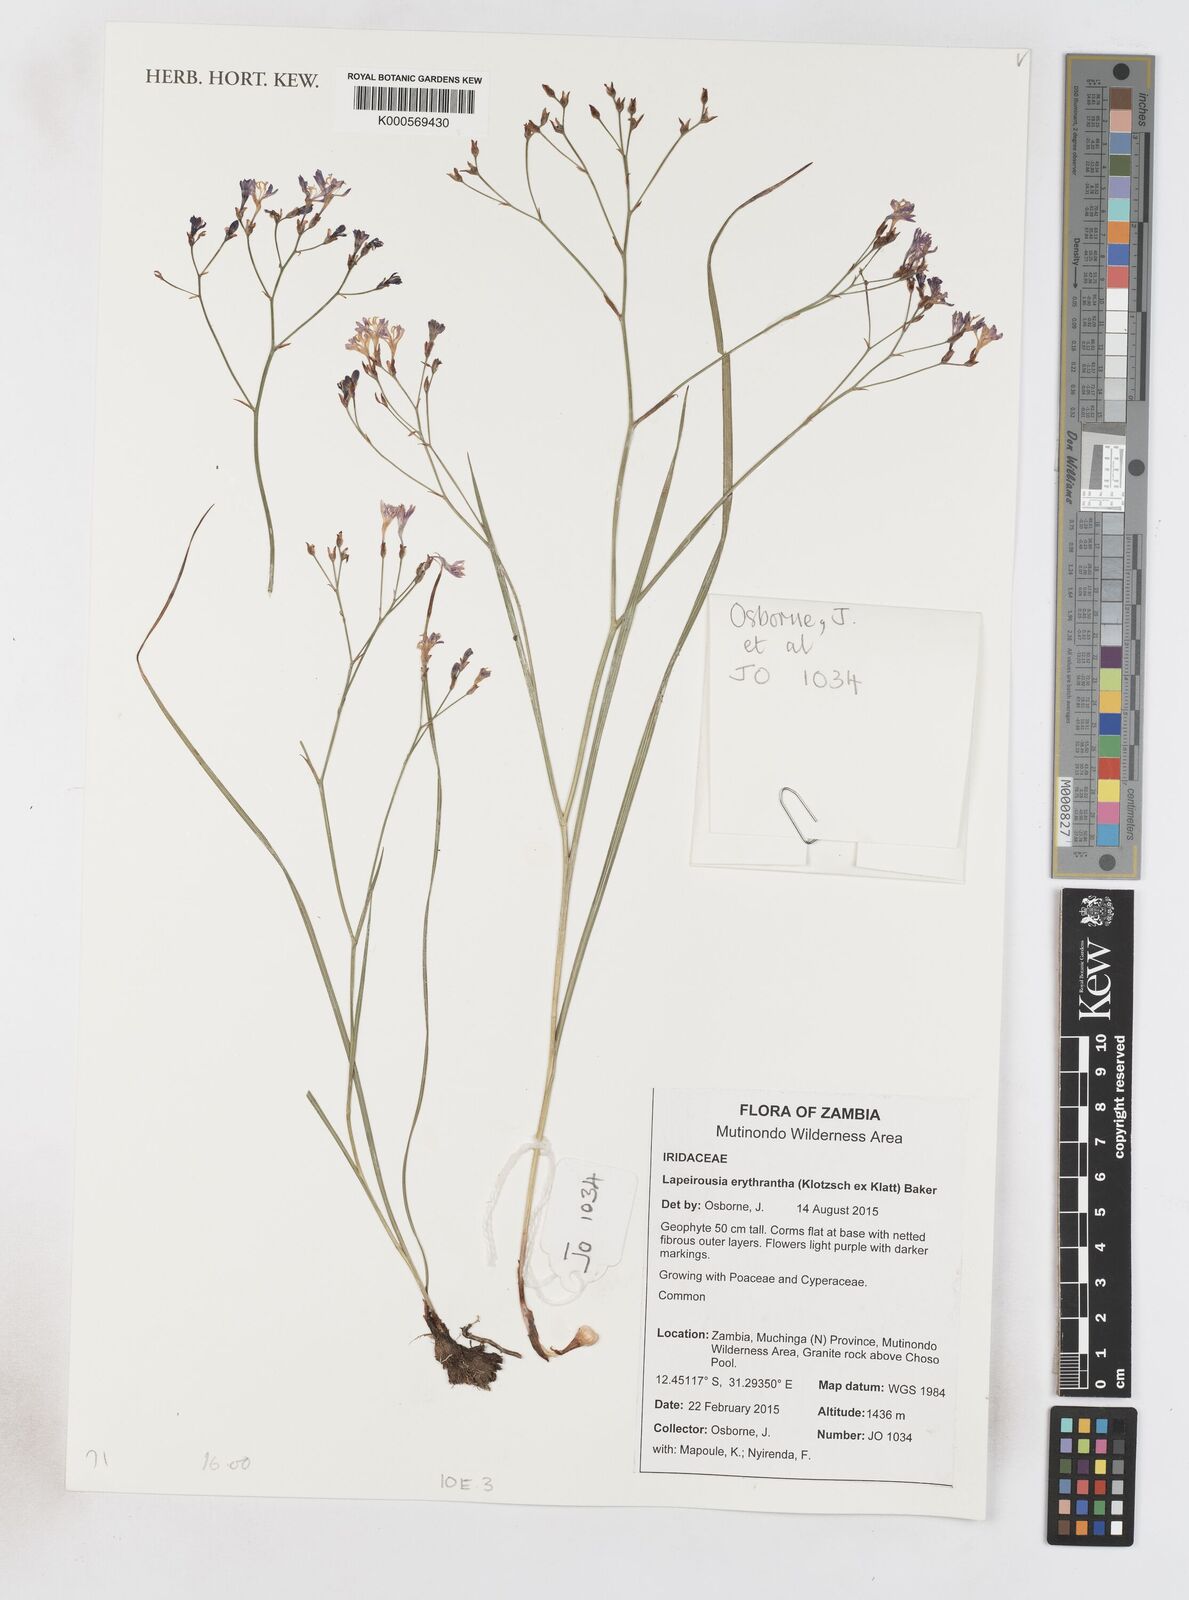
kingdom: Plantae
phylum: Tracheophyta
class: Liliopsida
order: Asparagales
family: Iridaceae
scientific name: Iridaceae
